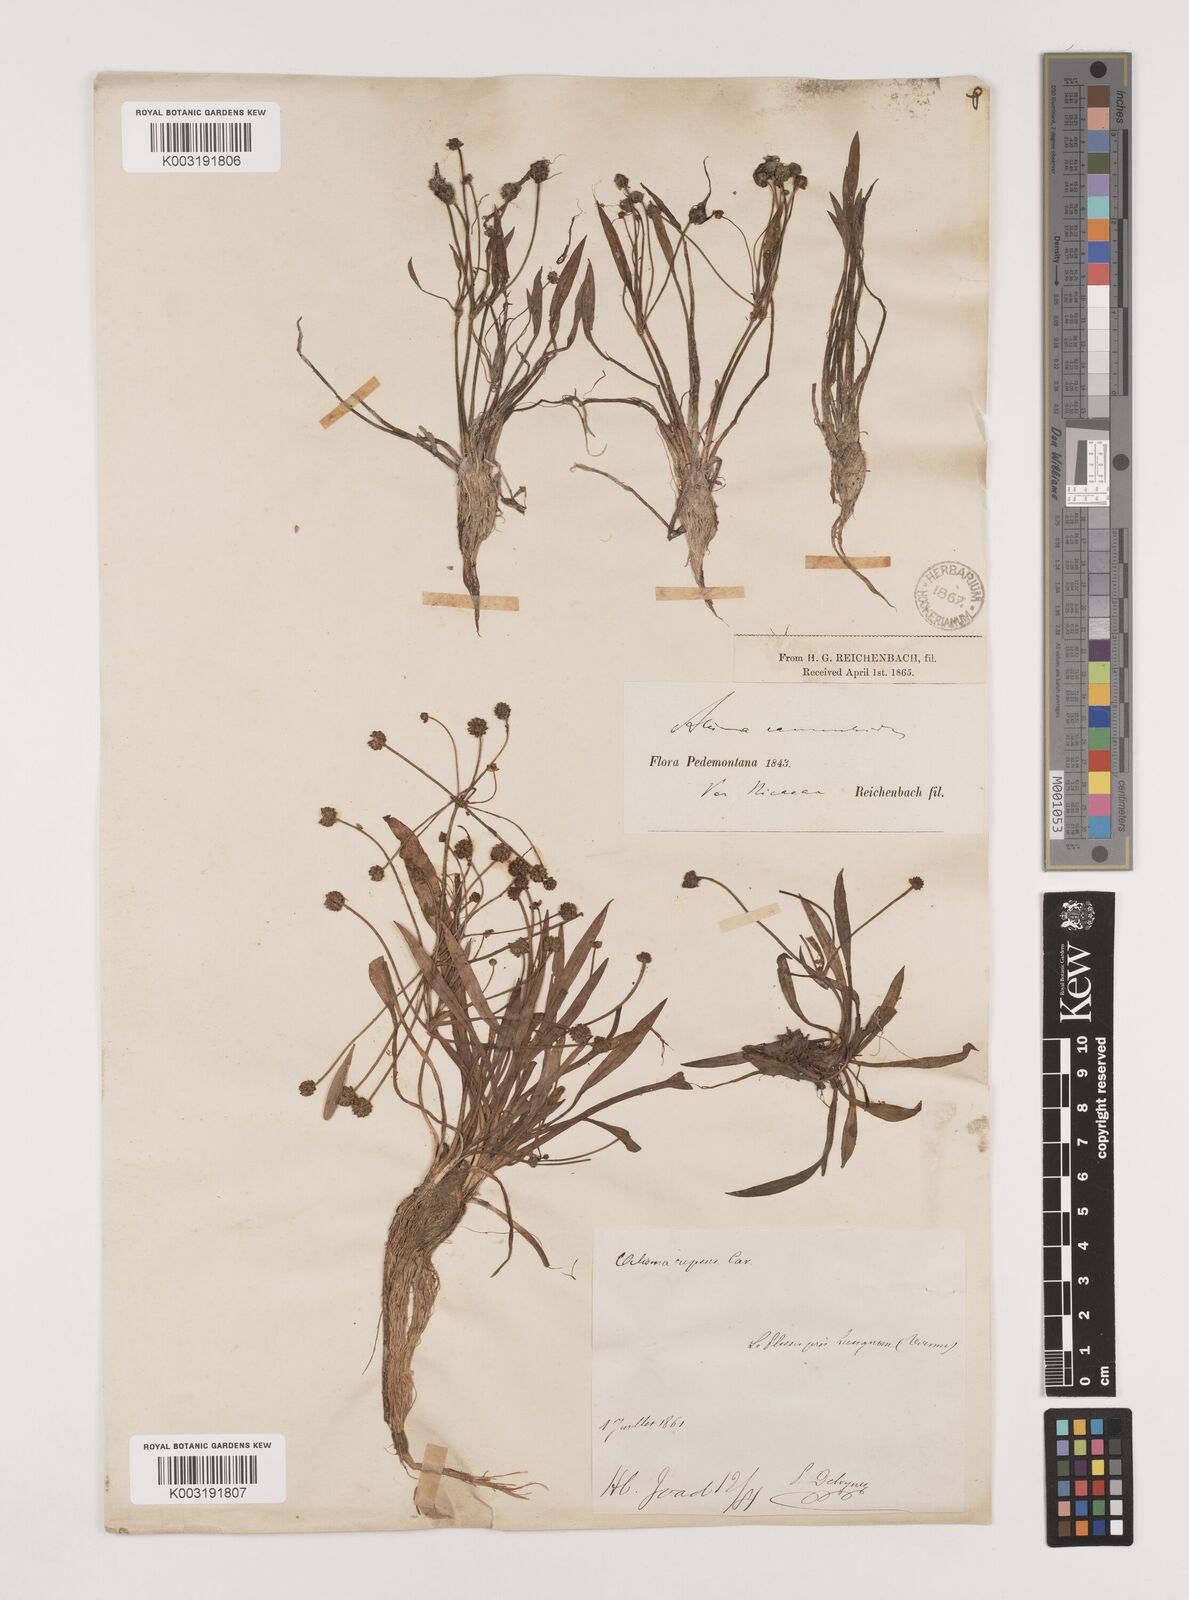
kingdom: Plantae
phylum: Tracheophyta
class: Liliopsida
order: Alismatales
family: Alismataceae
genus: Baldellia
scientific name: Baldellia ranunculoides
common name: Lesser water-plantain
